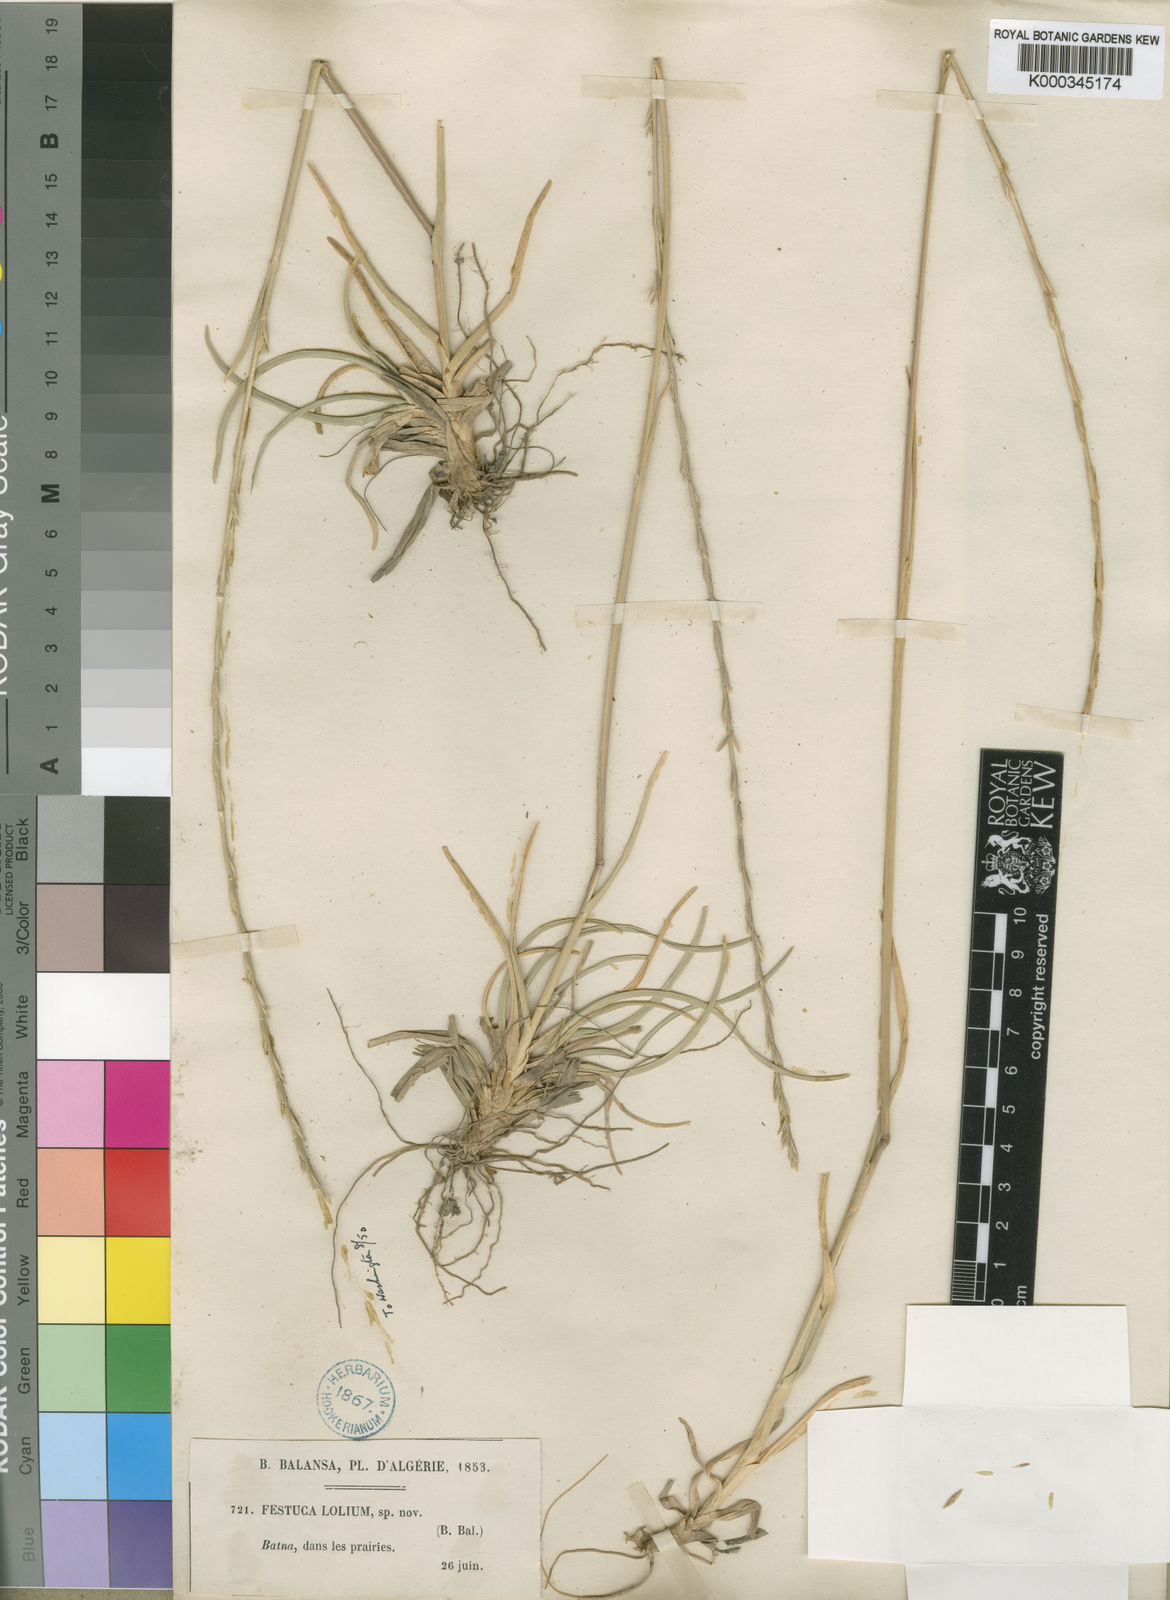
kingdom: Plantae
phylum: Tracheophyta
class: Liliopsida
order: Poales
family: Poaceae
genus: Agropyropsis
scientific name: Agropyropsis lolium
